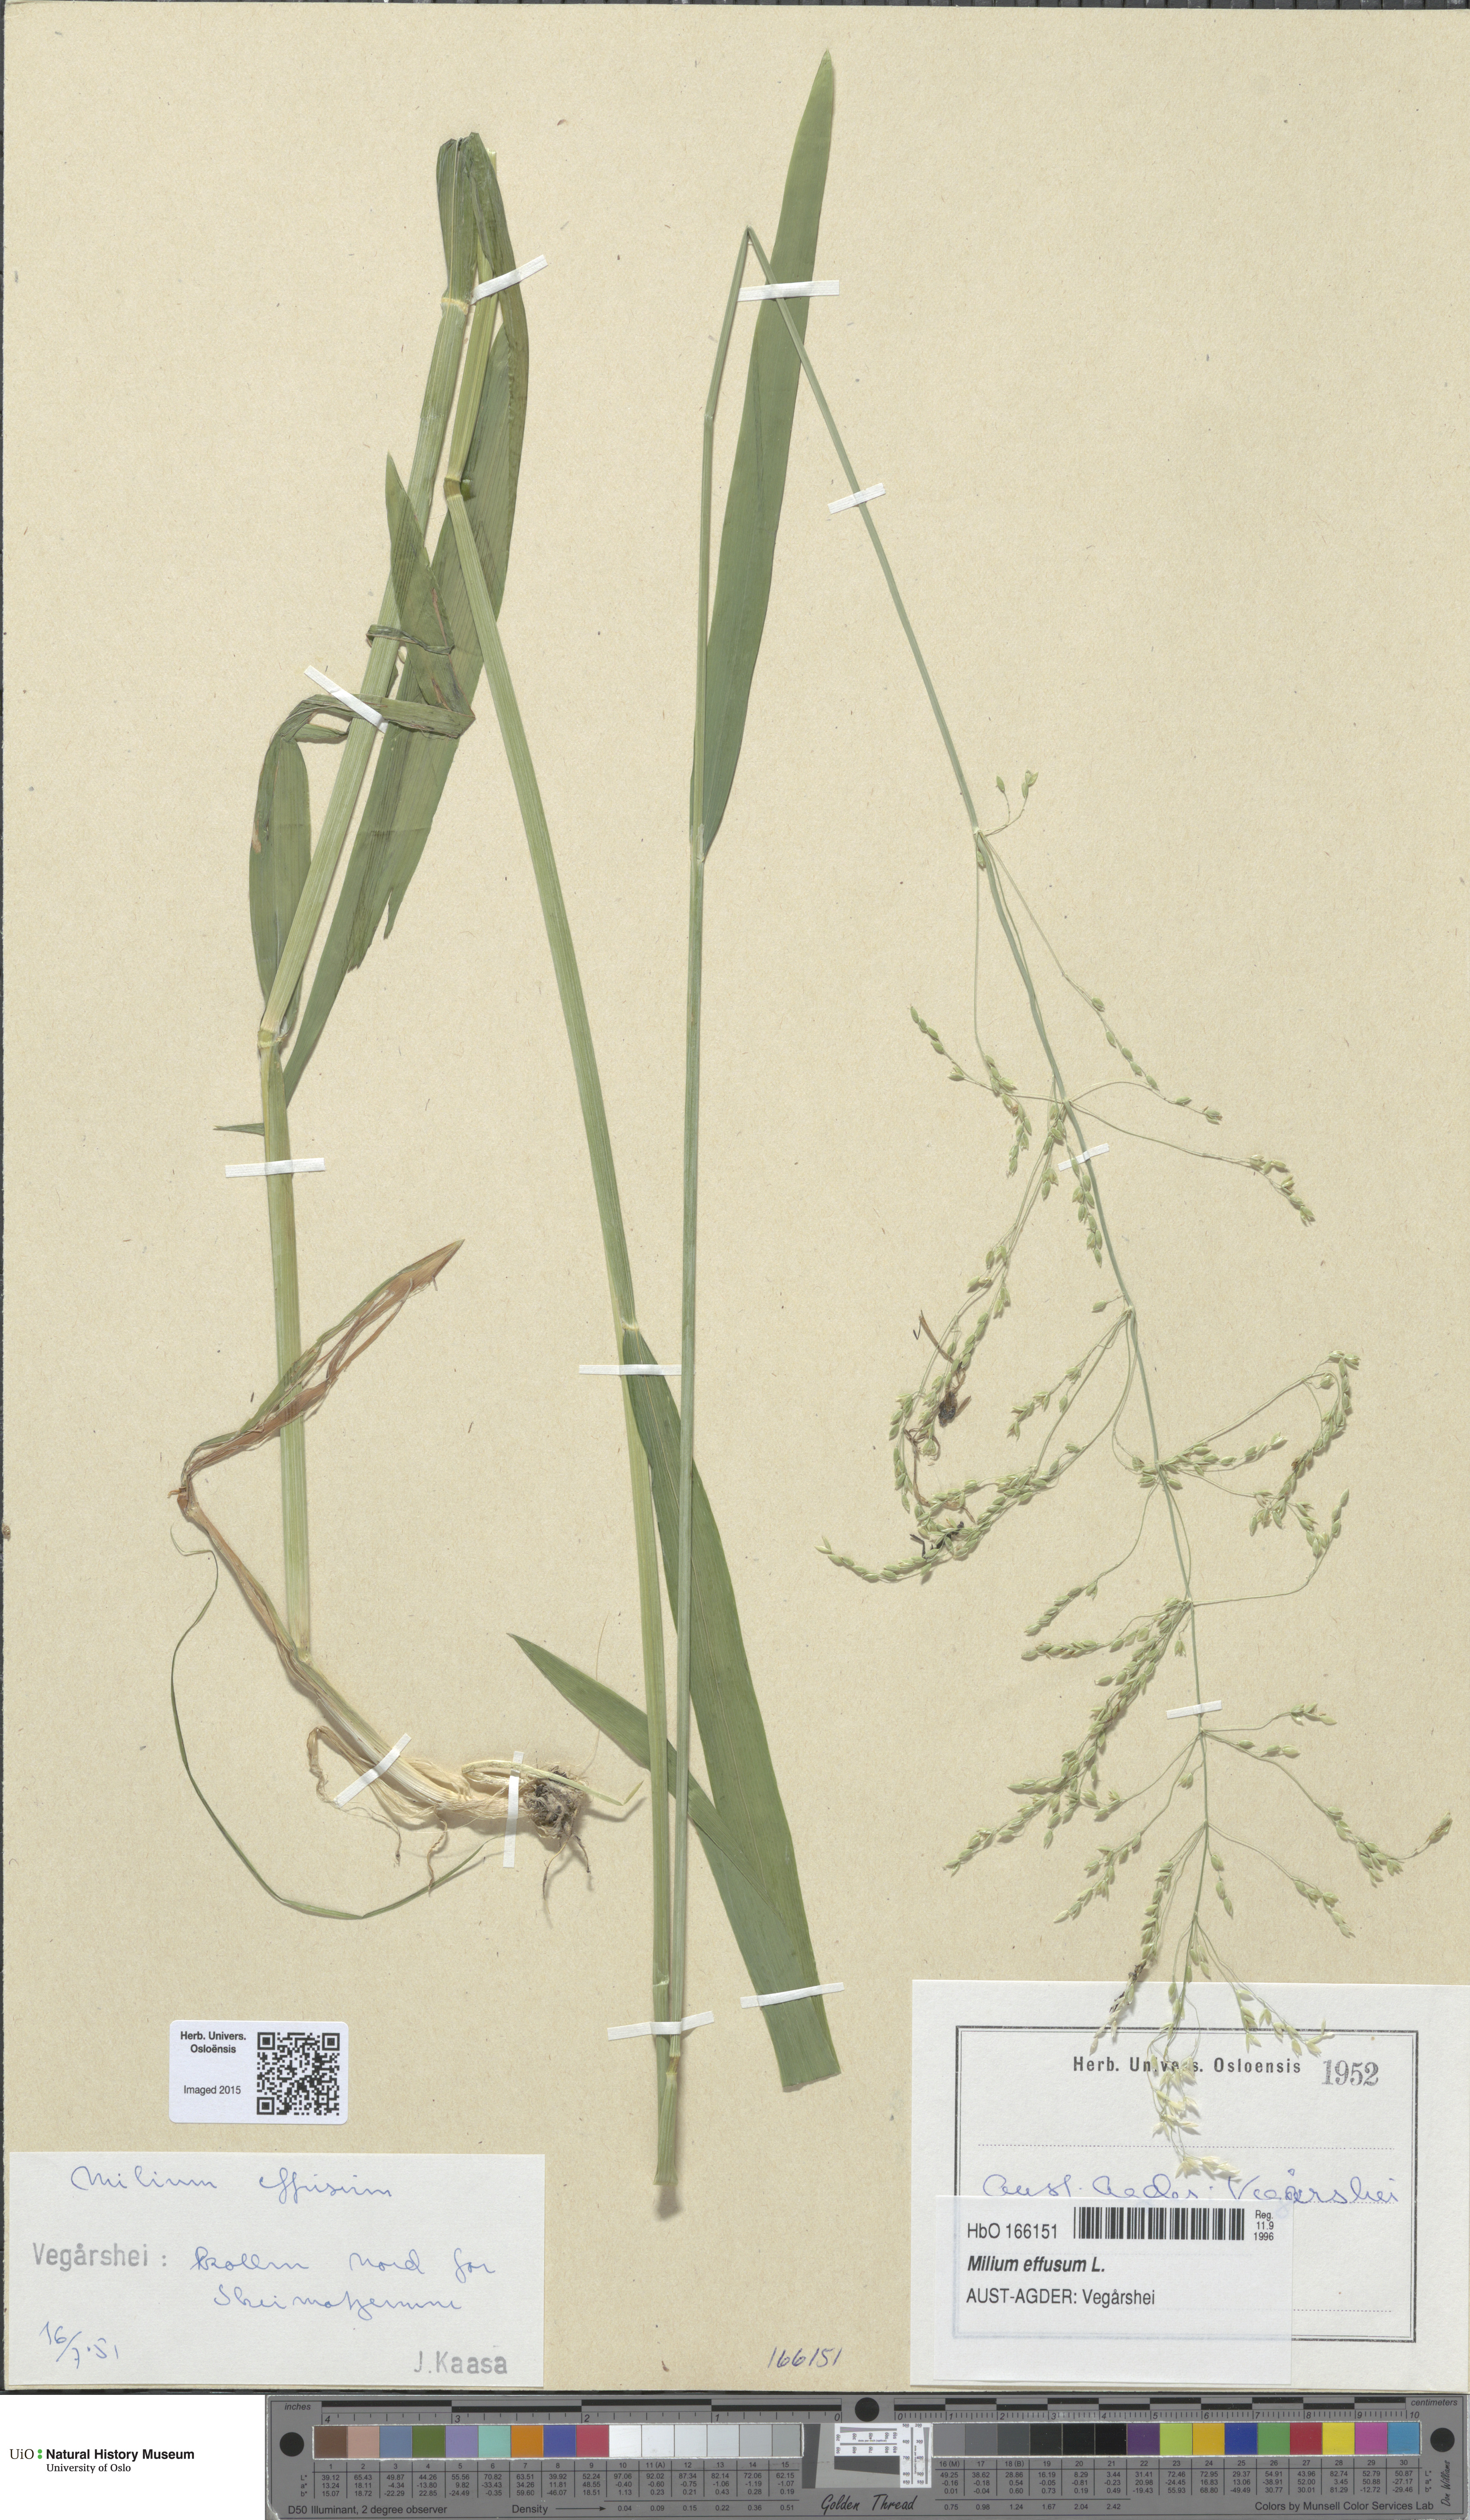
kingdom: Plantae
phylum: Tracheophyta
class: Liliopsida
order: Poales
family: Poaceae
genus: Milium
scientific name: Milium effusum
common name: Wood millet
